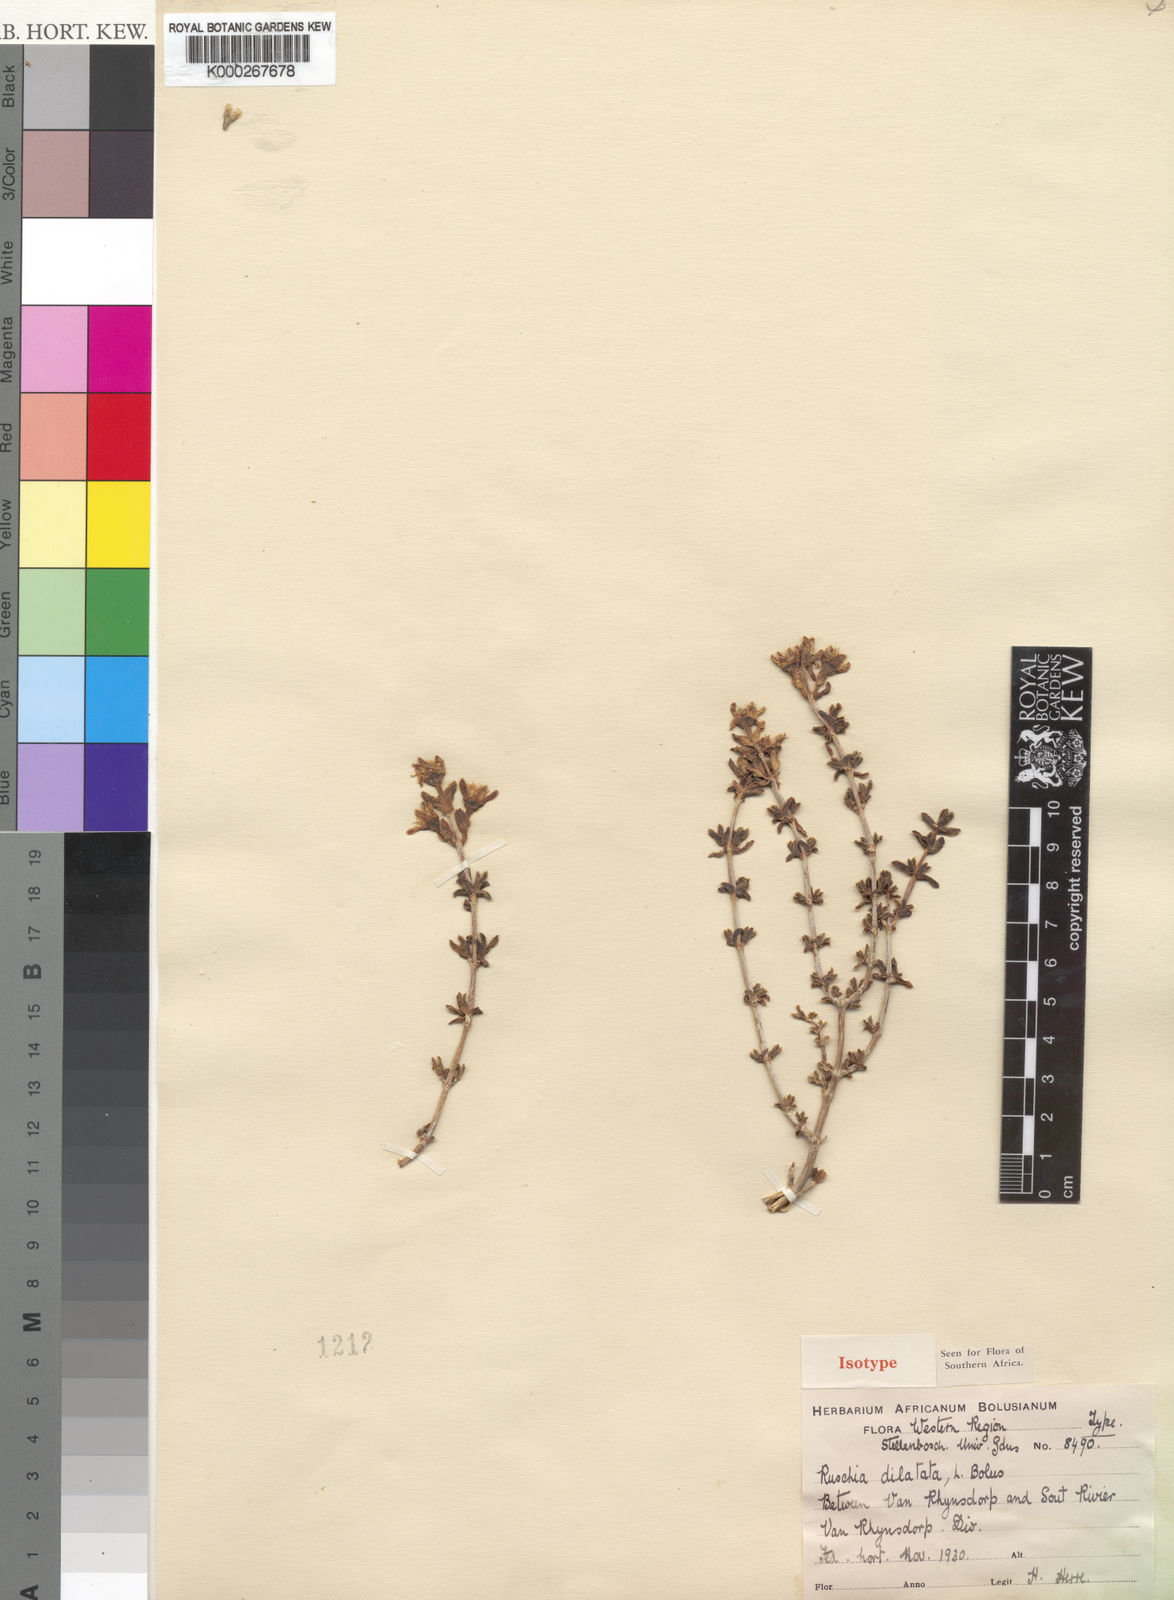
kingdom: Plantae
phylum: Tracheophyta
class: Magnoliopsida
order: Caryophyllales
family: Aizoaceae
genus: Ruschia
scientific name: Ruschia dilatata
